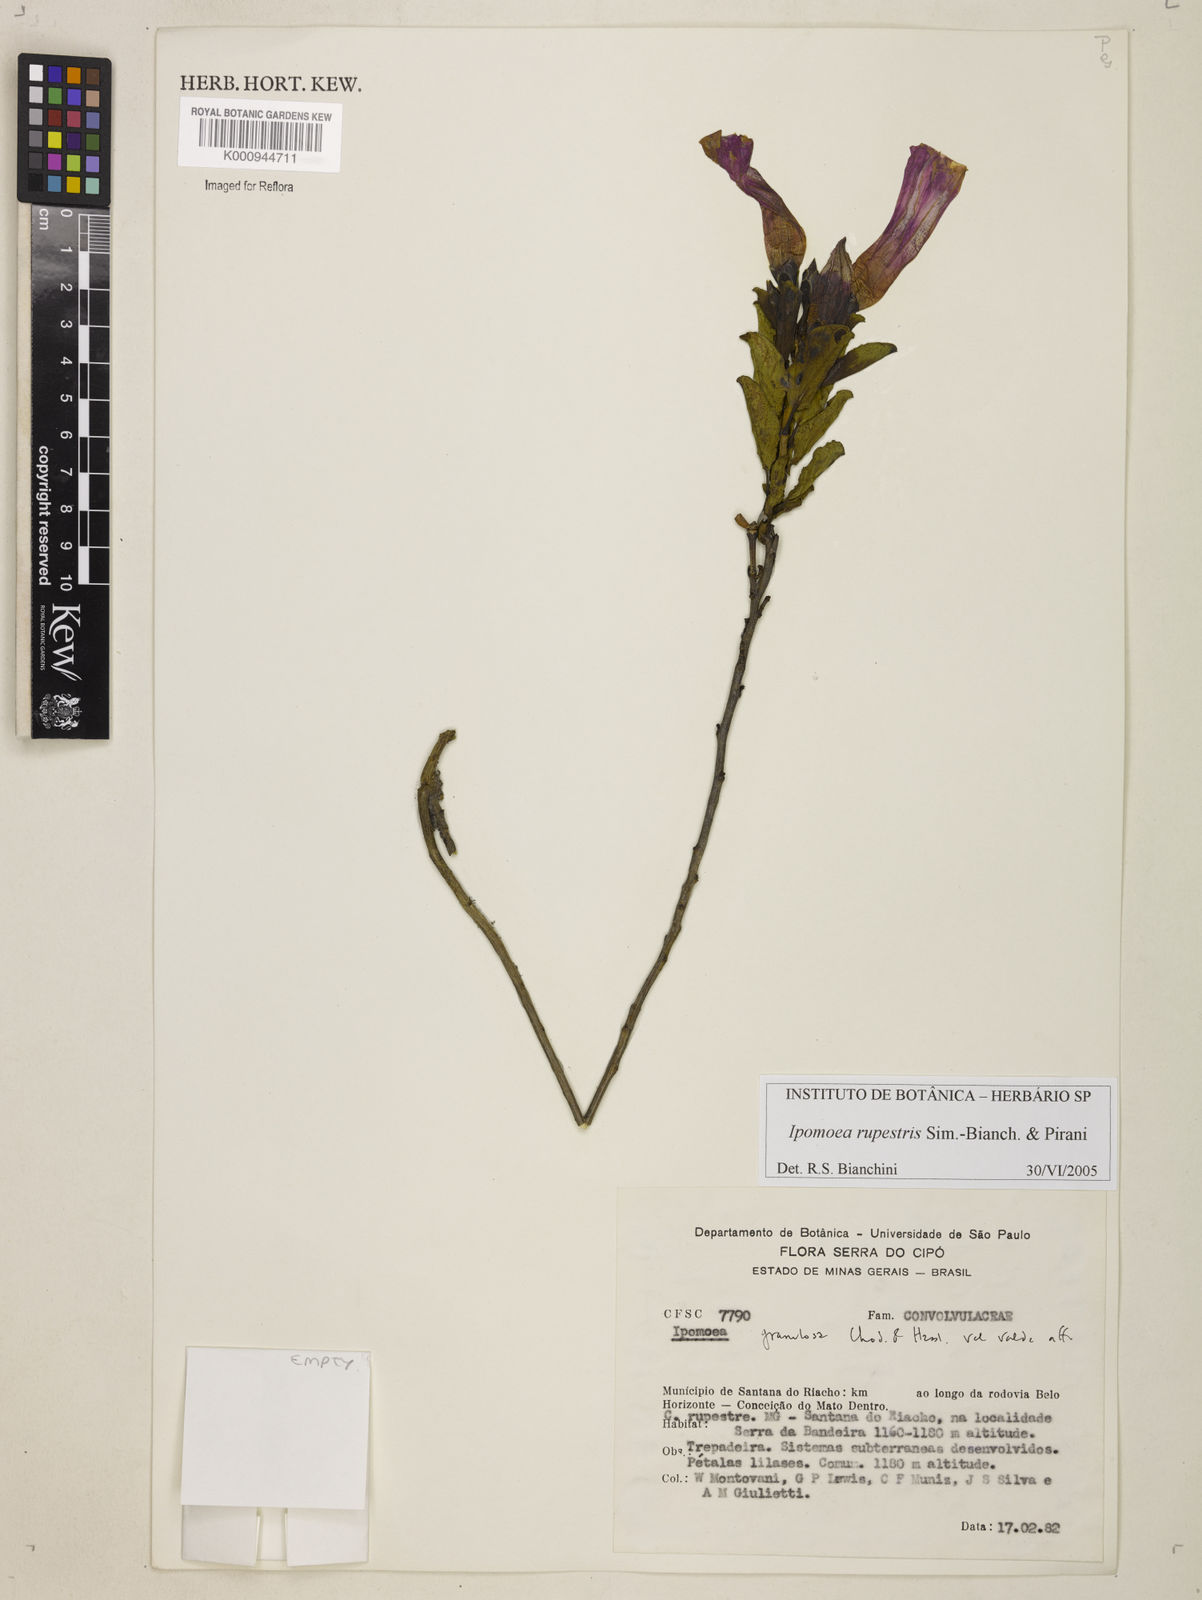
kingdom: Plantae
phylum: Tracheophyta
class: Magnoliopsida
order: Solanales
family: Convolvulaceae
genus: Ipomoea
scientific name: Ipomoea rupestris
